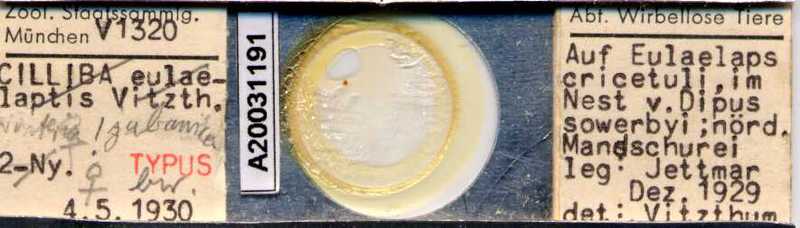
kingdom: Animalia
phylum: Arthropoda
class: Arachnida
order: Mesostigmata
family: Trematuridae
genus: Nenteria
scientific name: Nenteria eulaelaptis
